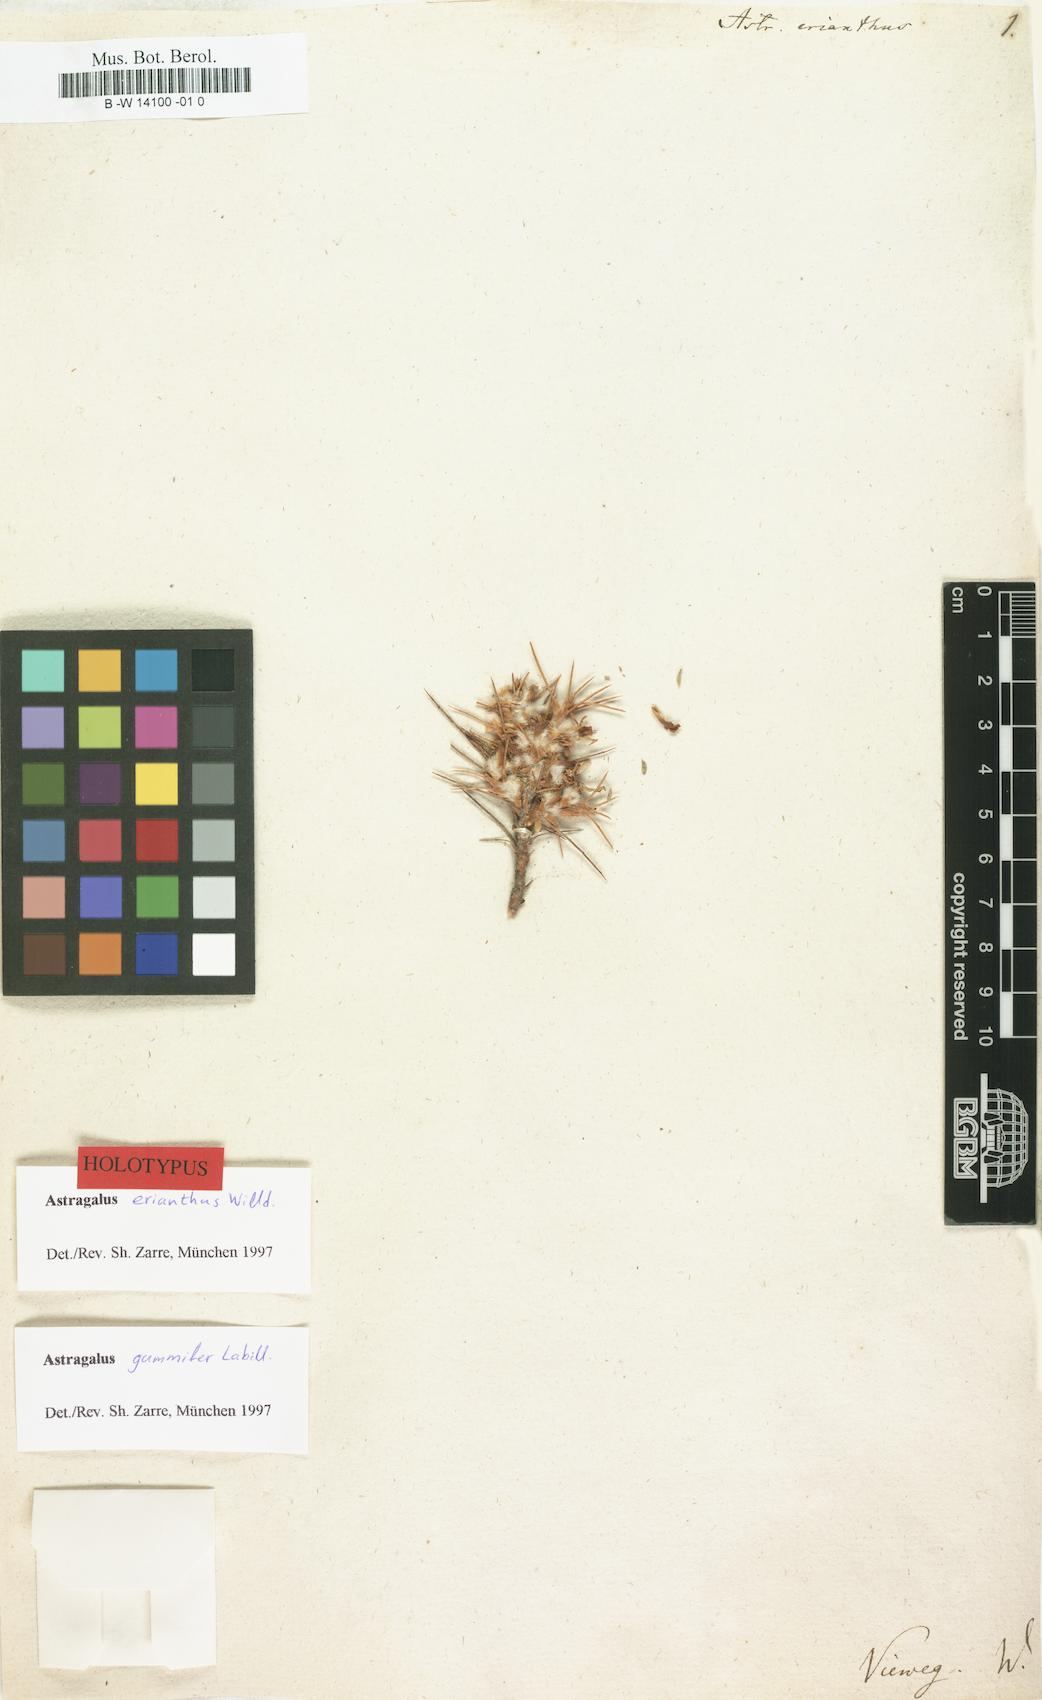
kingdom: Plantae
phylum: Tracheophyta
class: Magnoliopsida
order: Fabales
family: Fabaceae
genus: Astragalus
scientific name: Astragalus gummifer
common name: Tragacanth
